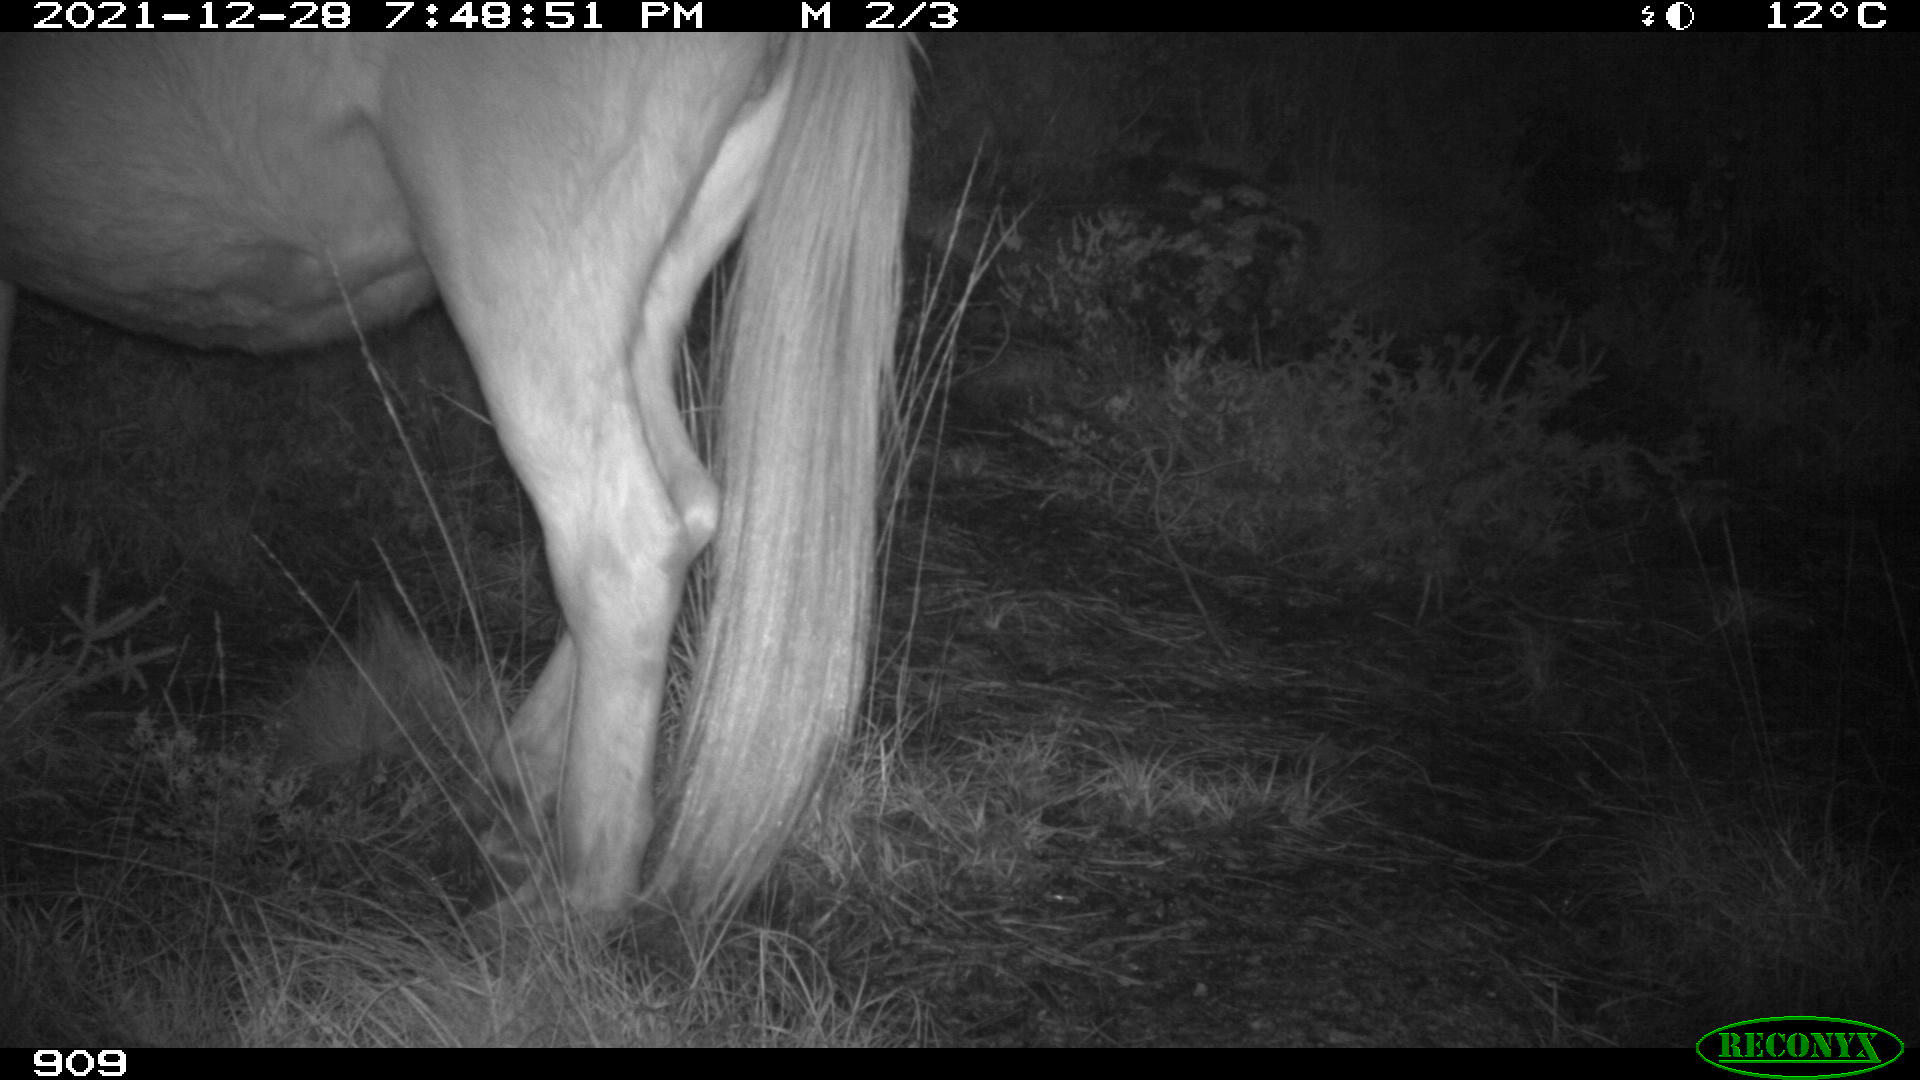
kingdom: Animalia
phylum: Chordata
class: Mammalia
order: Perissodactyla
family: Equidae
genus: Equus
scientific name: Equus caballus
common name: Horse
